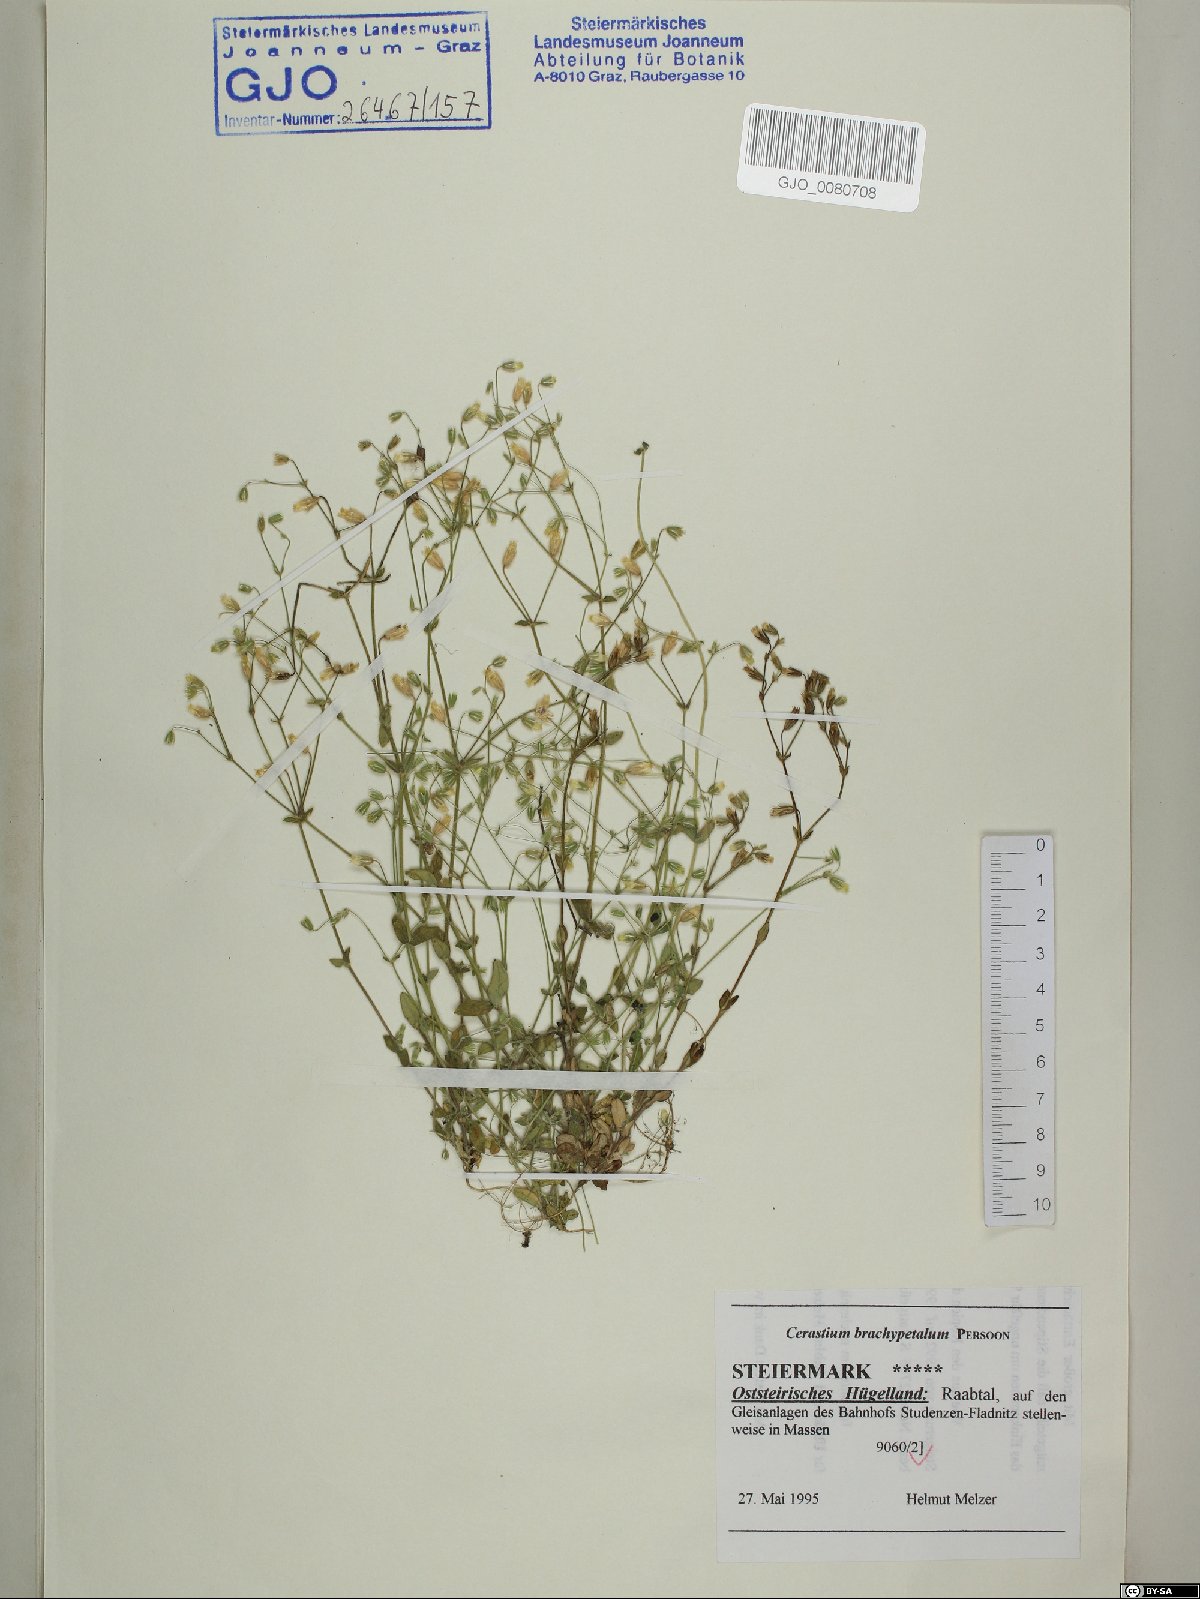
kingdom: Plantae
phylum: Tracheophyta
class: Magnoliopsida
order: Caryophyllales
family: Caryophyllaceae
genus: Cerastium
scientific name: Cerastium brachypetalum
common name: Grey mouse-ear
